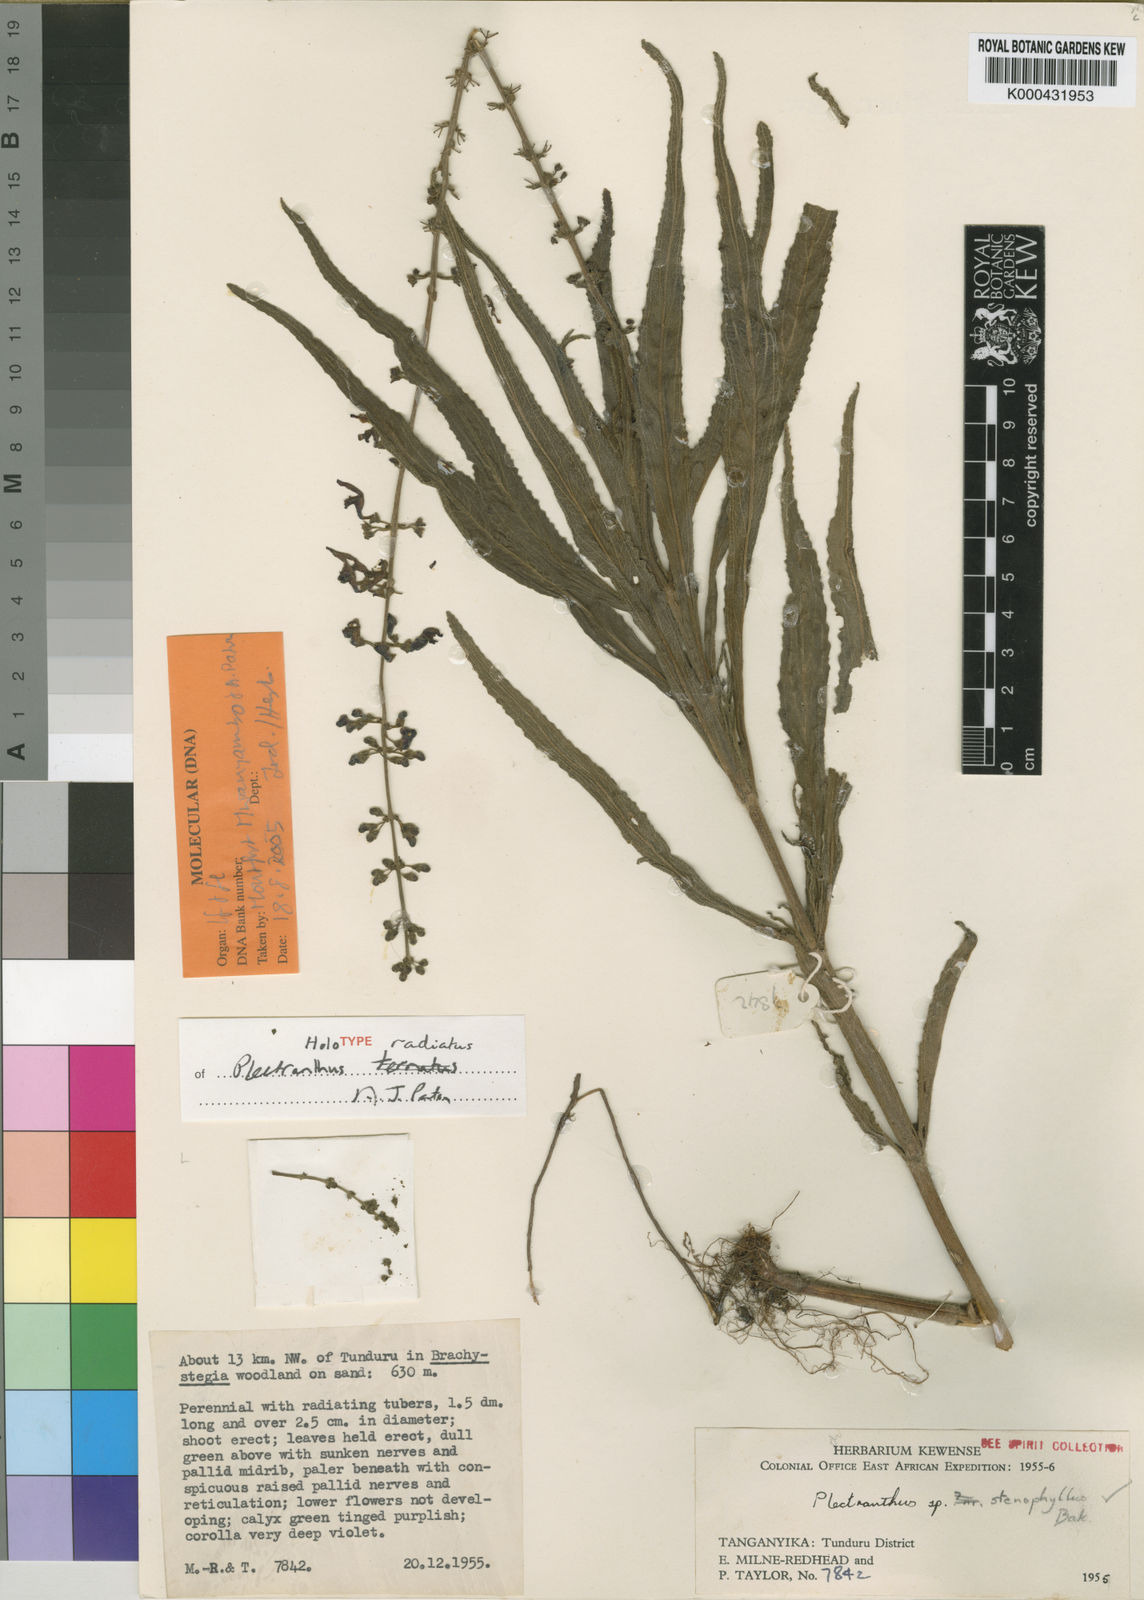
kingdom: Plantae
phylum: Tracheophyta
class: Magnoliopsida
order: Lamiales
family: Lamiaceae
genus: Equilabium
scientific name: Equilabium radiatum
